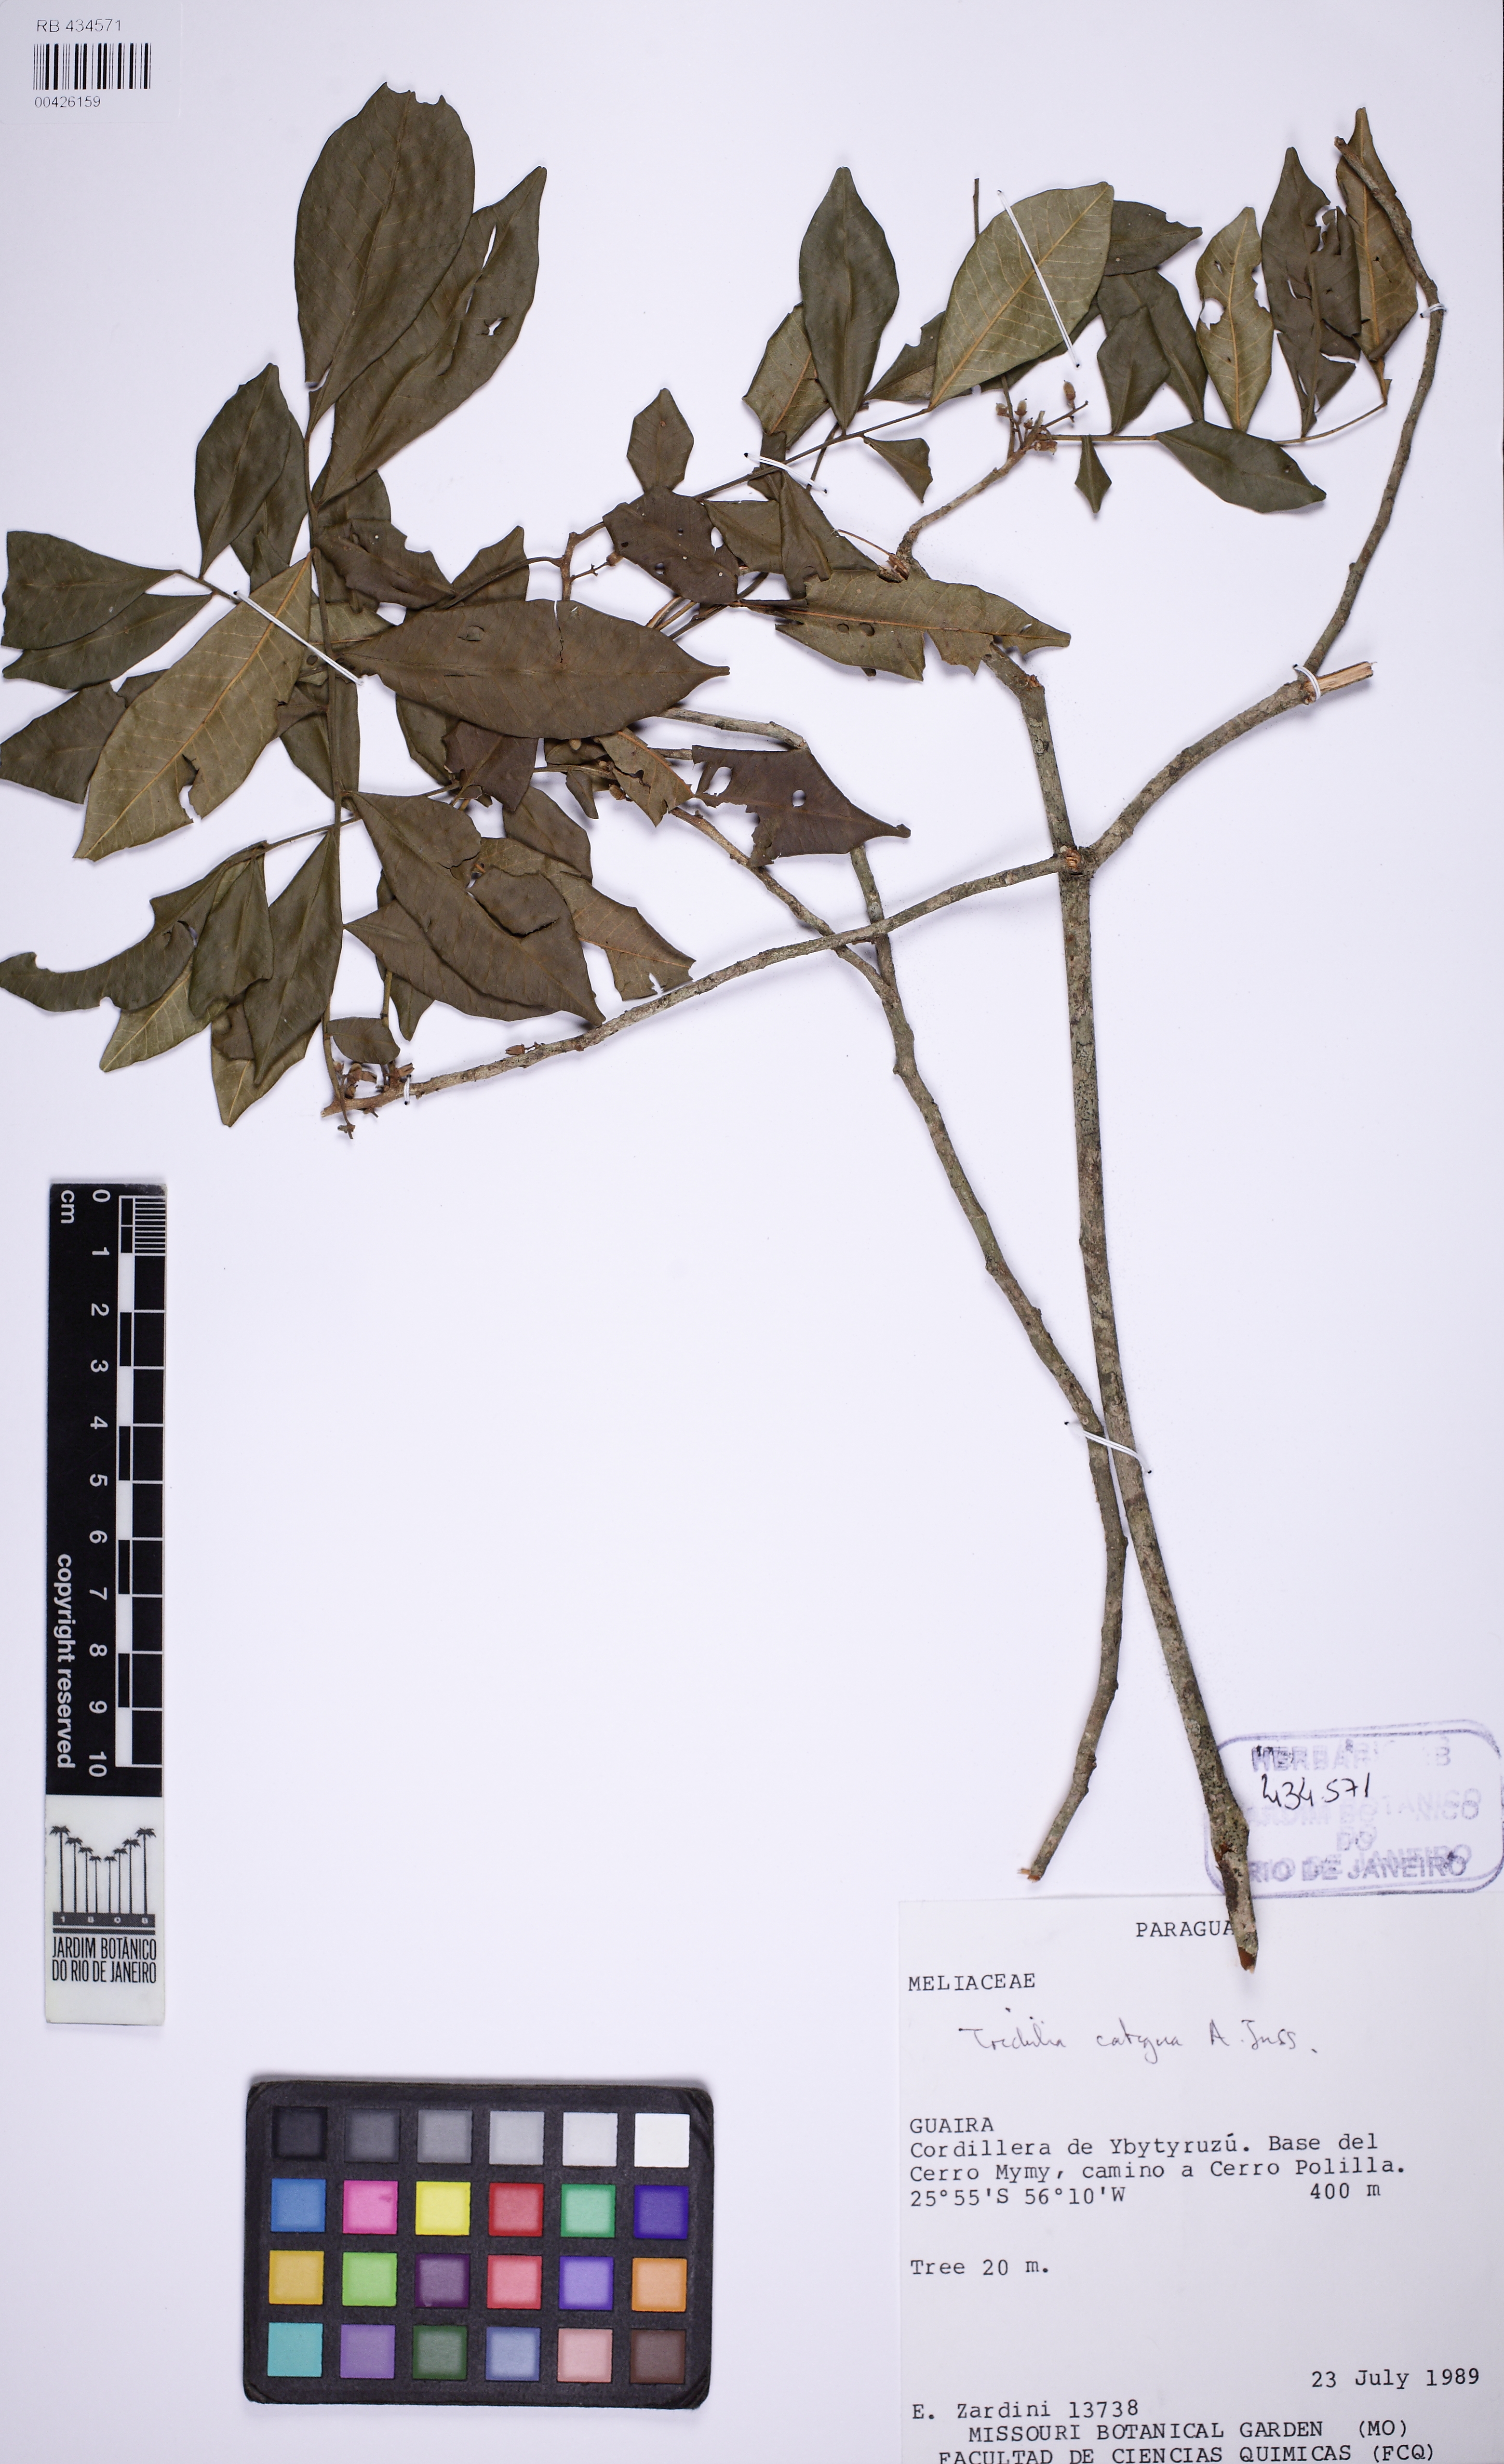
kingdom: Plantae
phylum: Tracheophyta
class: Magnoliopsida
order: Sapindales
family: Meliaceae
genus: Trichilia
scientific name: Trichilia catigua
